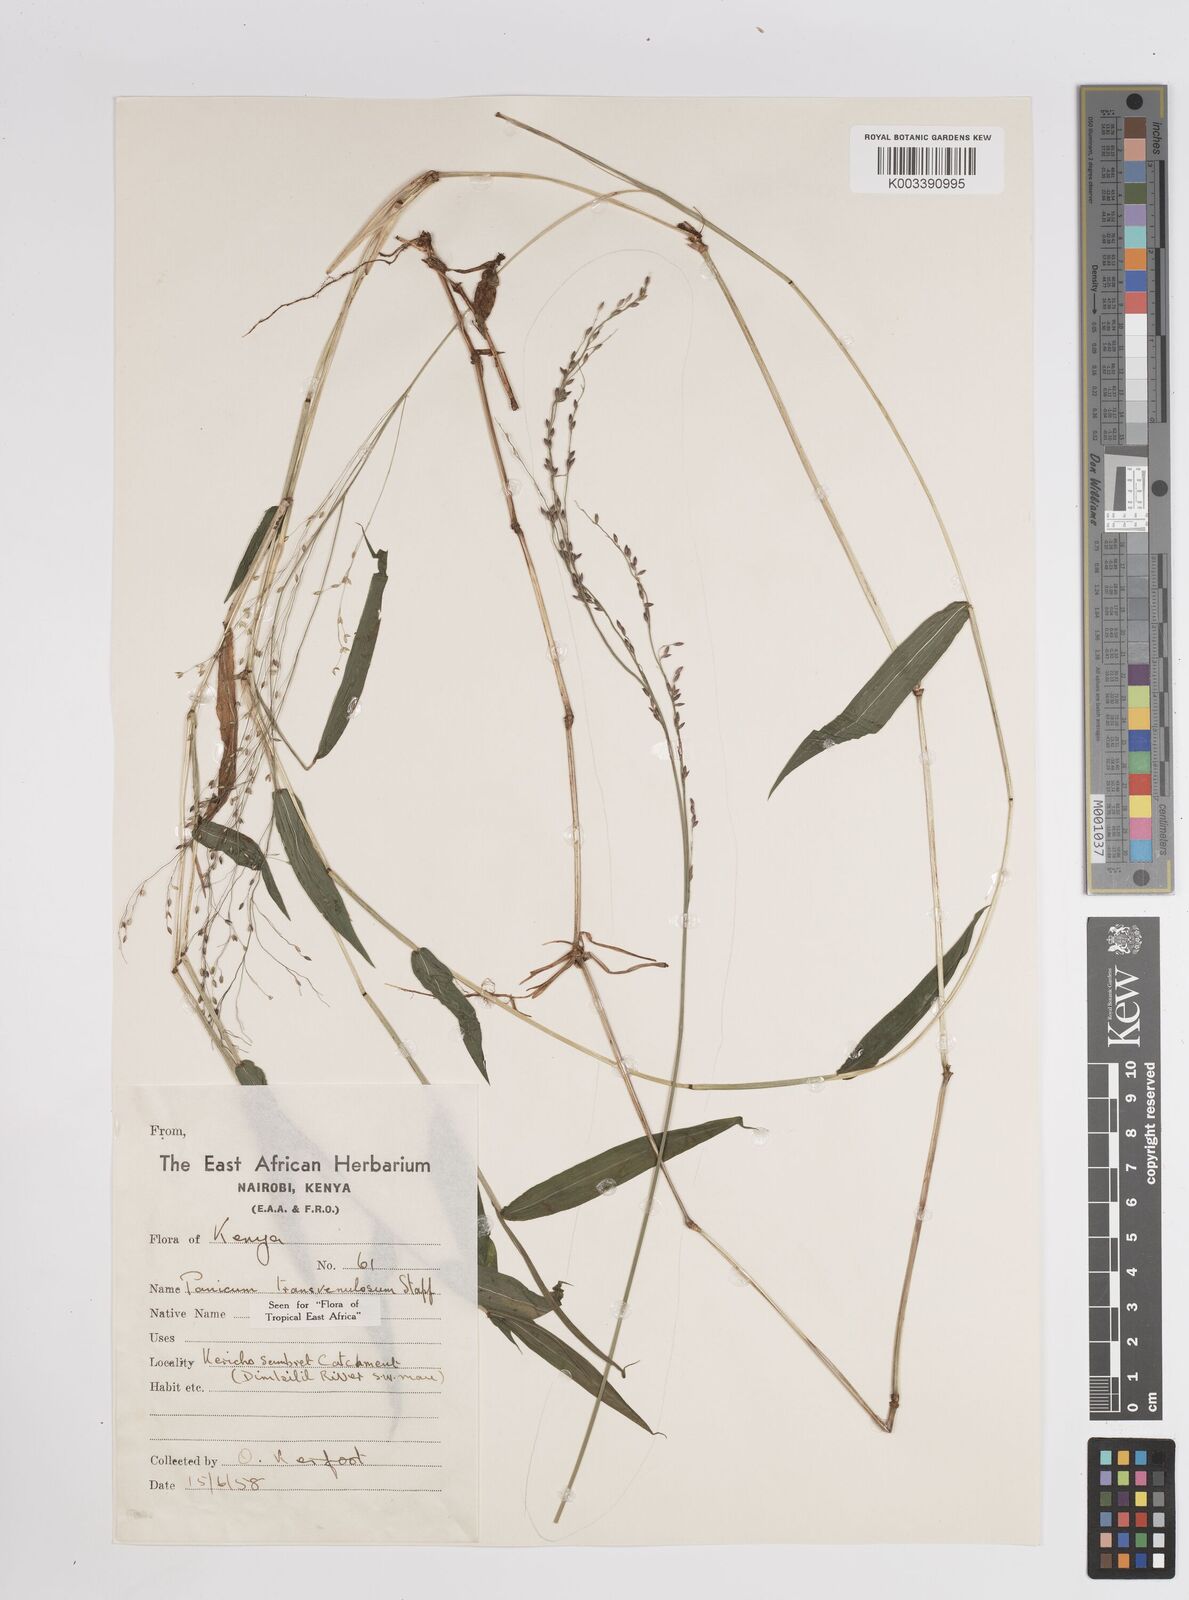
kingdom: Plantae
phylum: Tracheophyta
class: Liliopsida
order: Poales
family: Poaceae
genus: Panicum
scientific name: Panicum monticola
